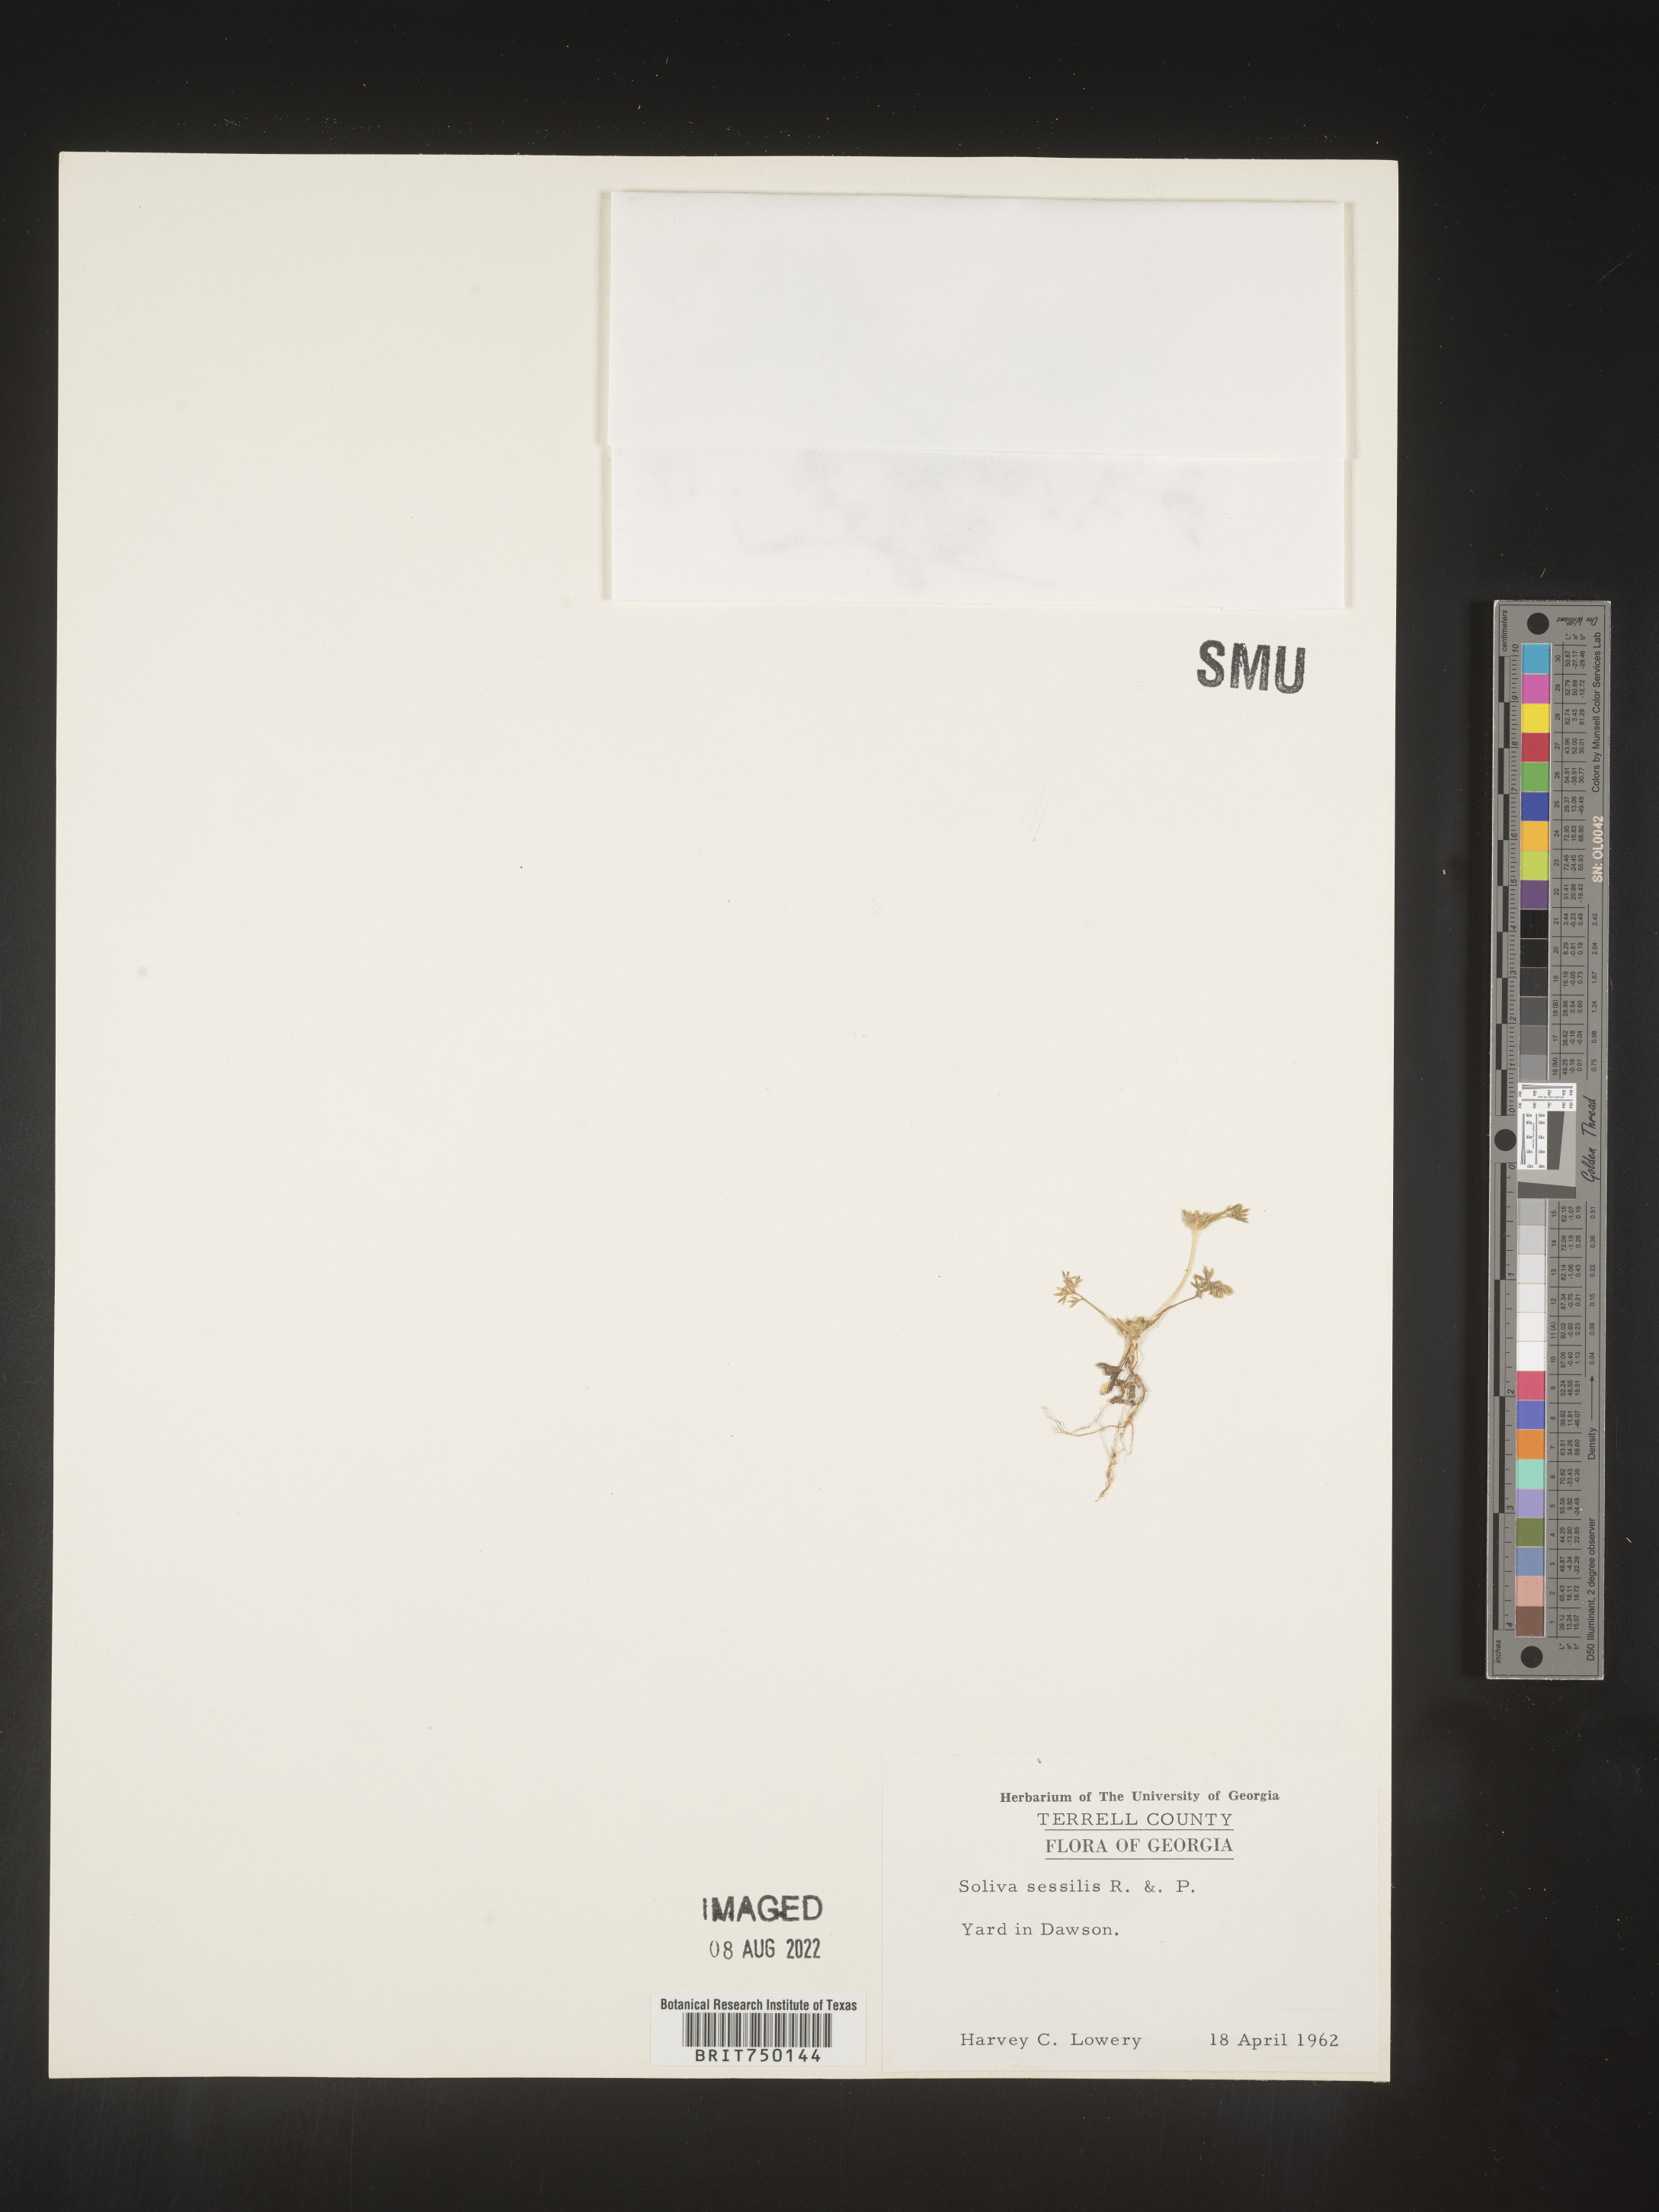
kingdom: Plantae
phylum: Tracheophyta
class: Magnoliopsida
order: Asterales
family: Asteraceae
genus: Soliva
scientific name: Soliva
